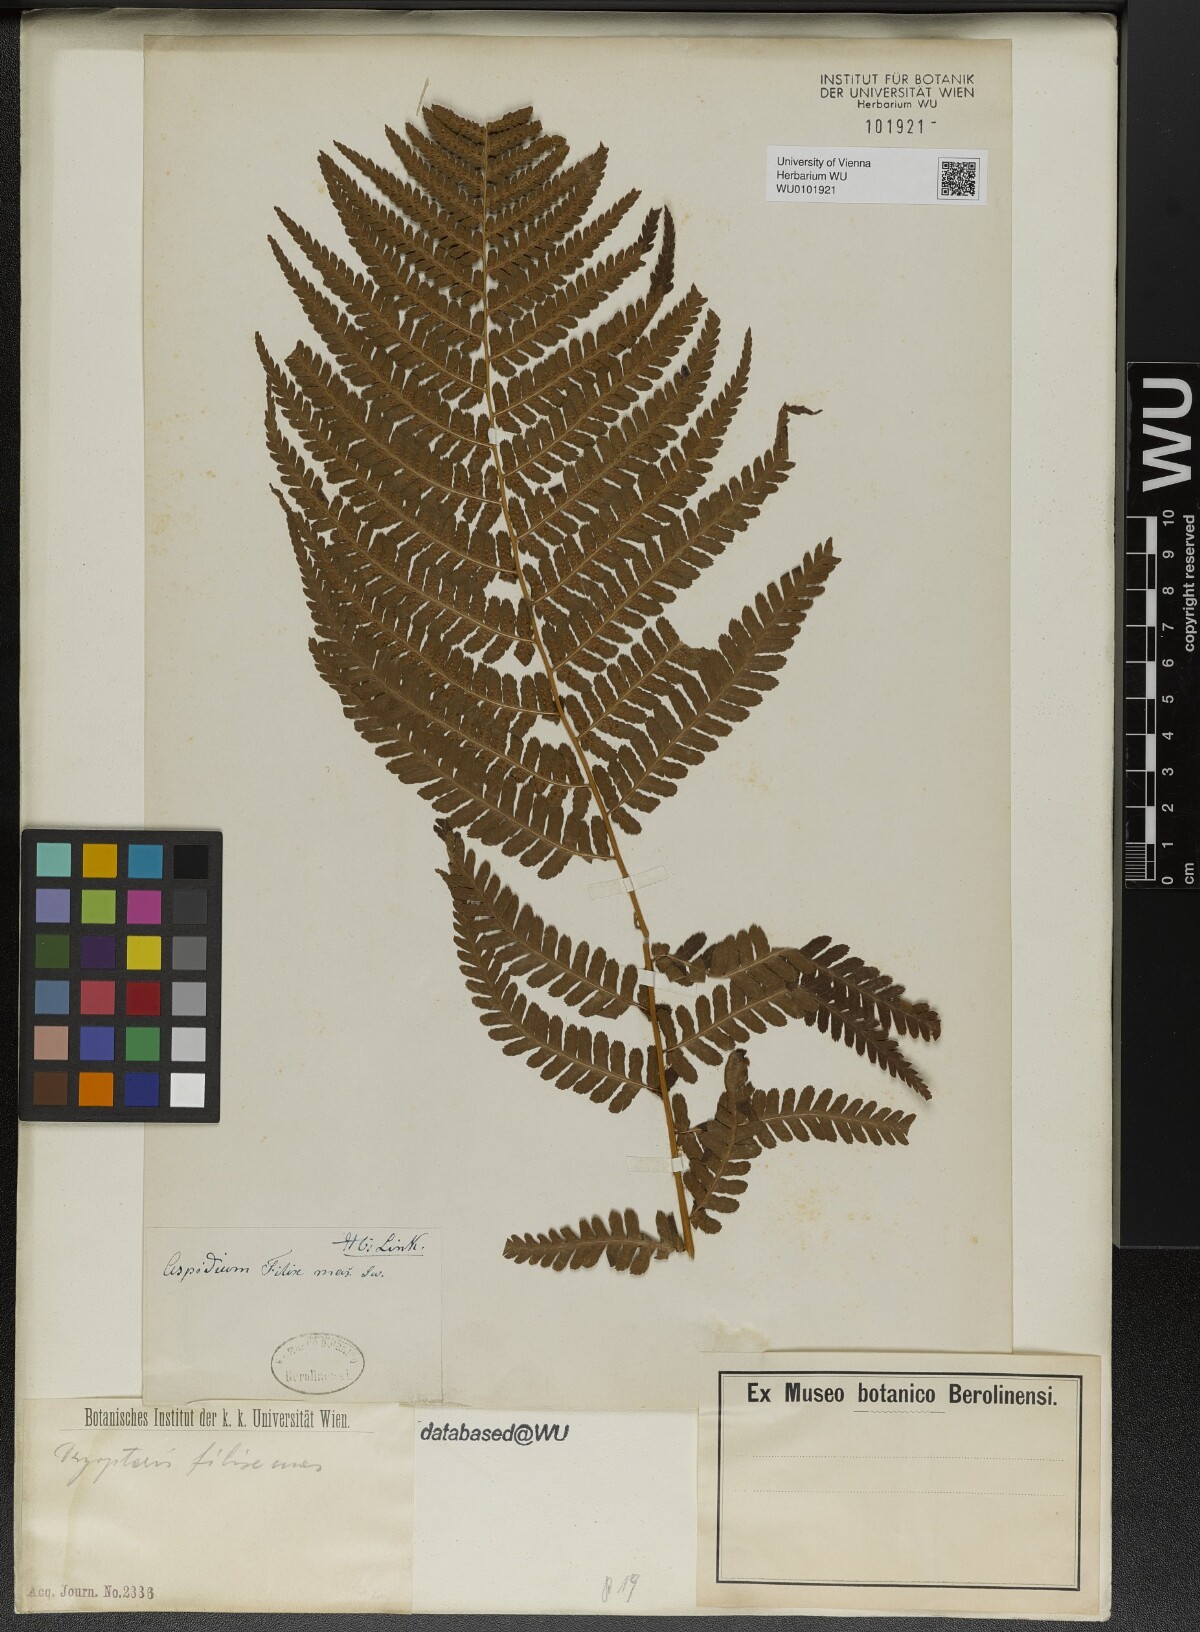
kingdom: Plantae
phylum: Tracheophyta
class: Polypodiopsida
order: Polypodiales
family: Dryopteridaceae
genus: Dryopteris
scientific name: Dryopteris filix-mas
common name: Male fern
